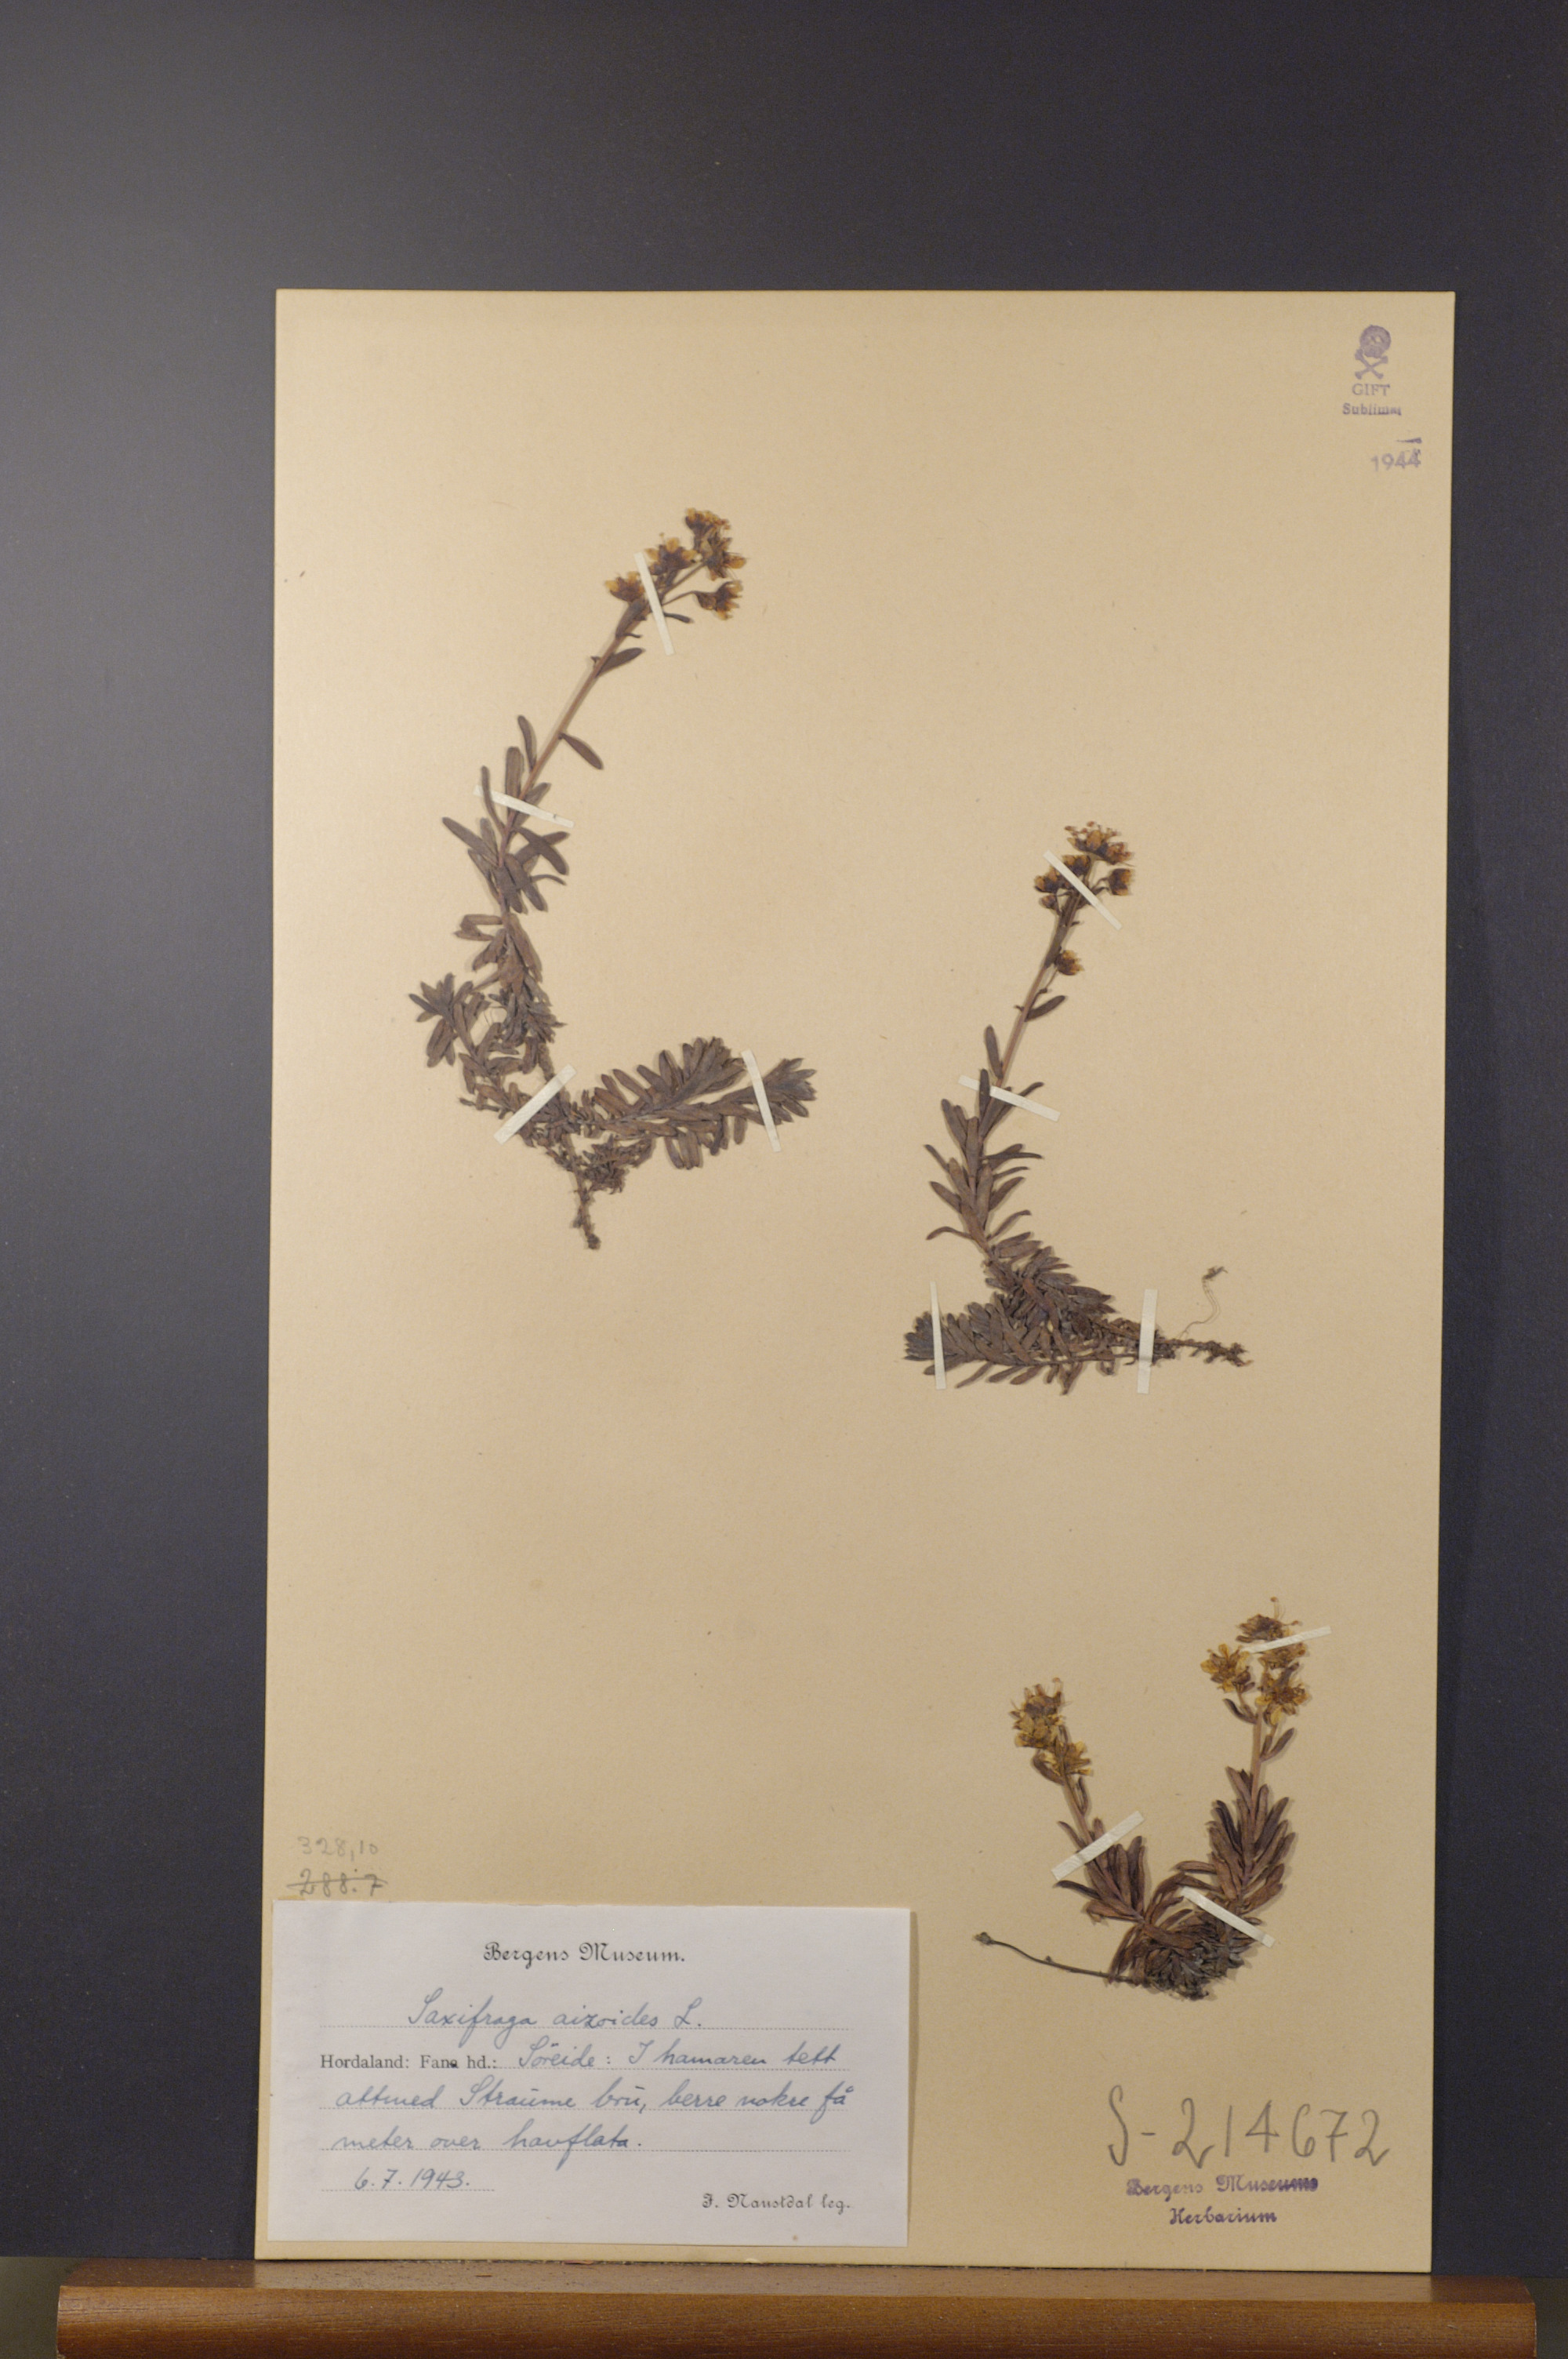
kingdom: Plantae
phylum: Tracheophyta
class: Magnoliopsida
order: Saxifragales
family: Saxifragaceae
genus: Saxifraga
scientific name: Saxifraga aizoides
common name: Yellow mountain saxifrage
